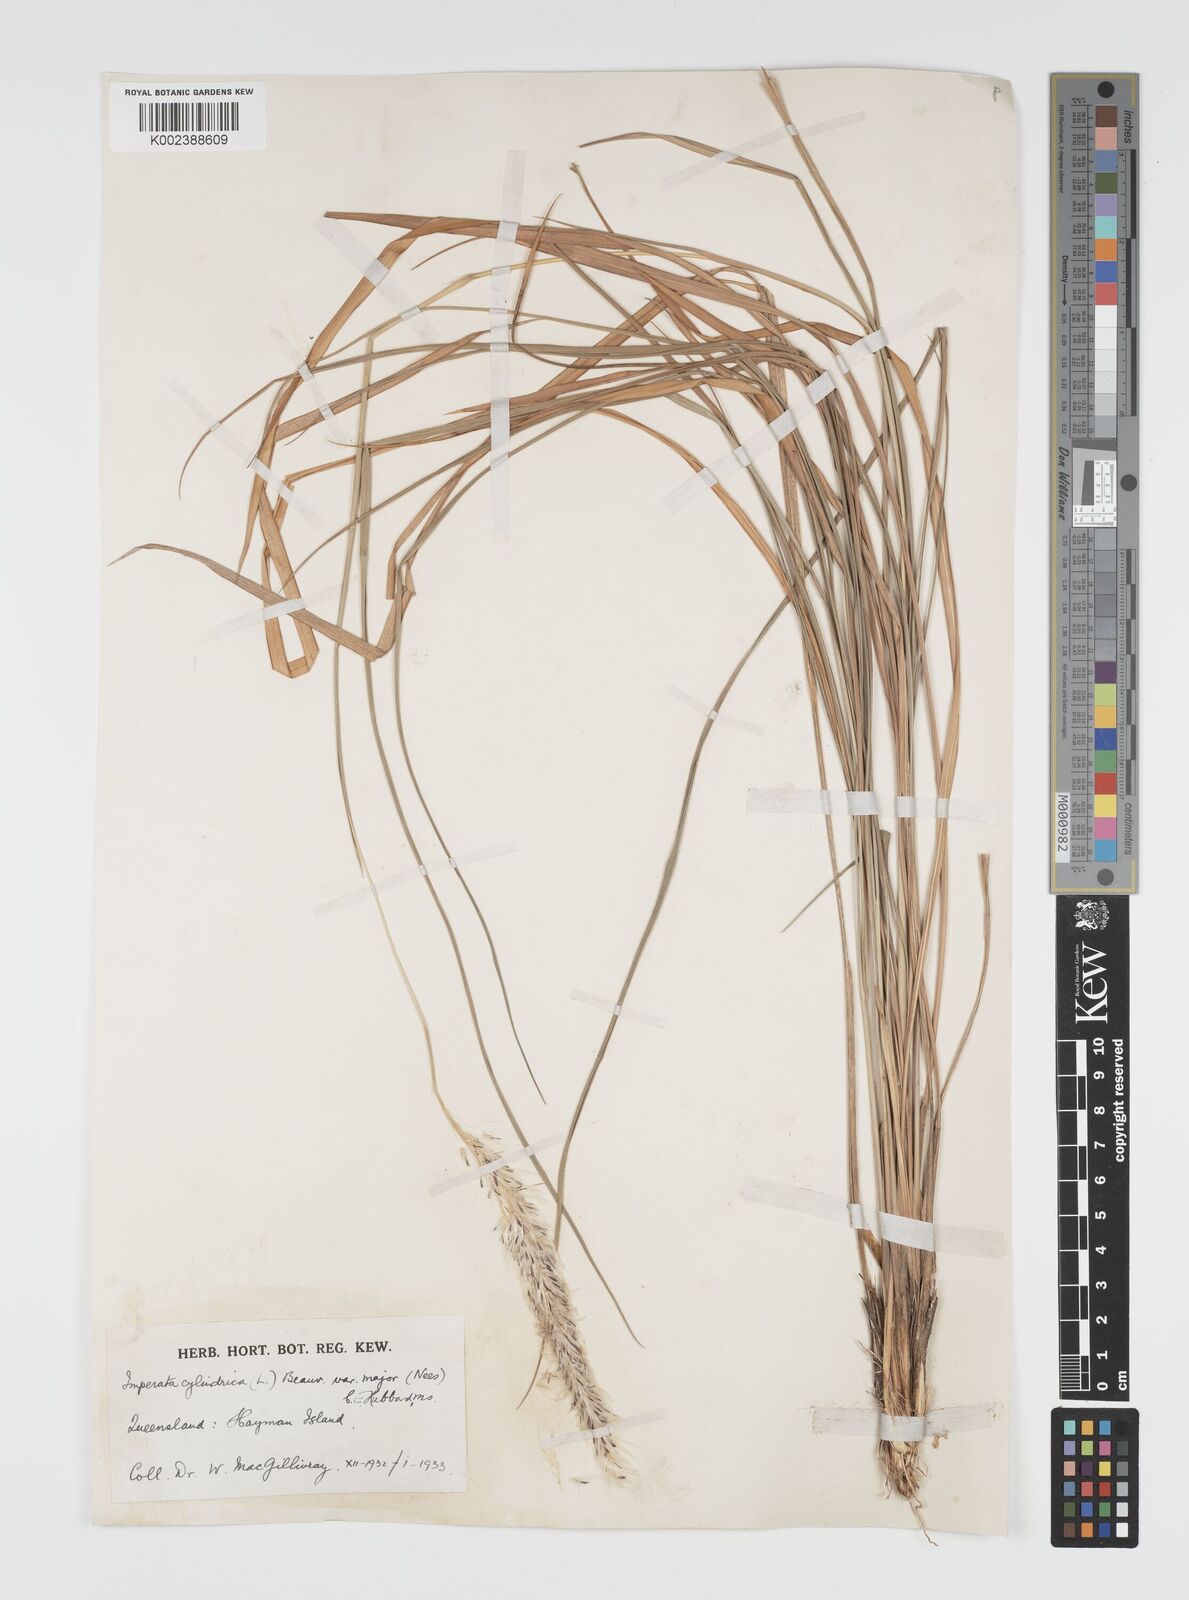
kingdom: Plantae
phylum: Tracheophyta
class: Liliopsida
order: Poales
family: Poaceae
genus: Imperata
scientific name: Imperata cylindrica
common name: Cogongrass
